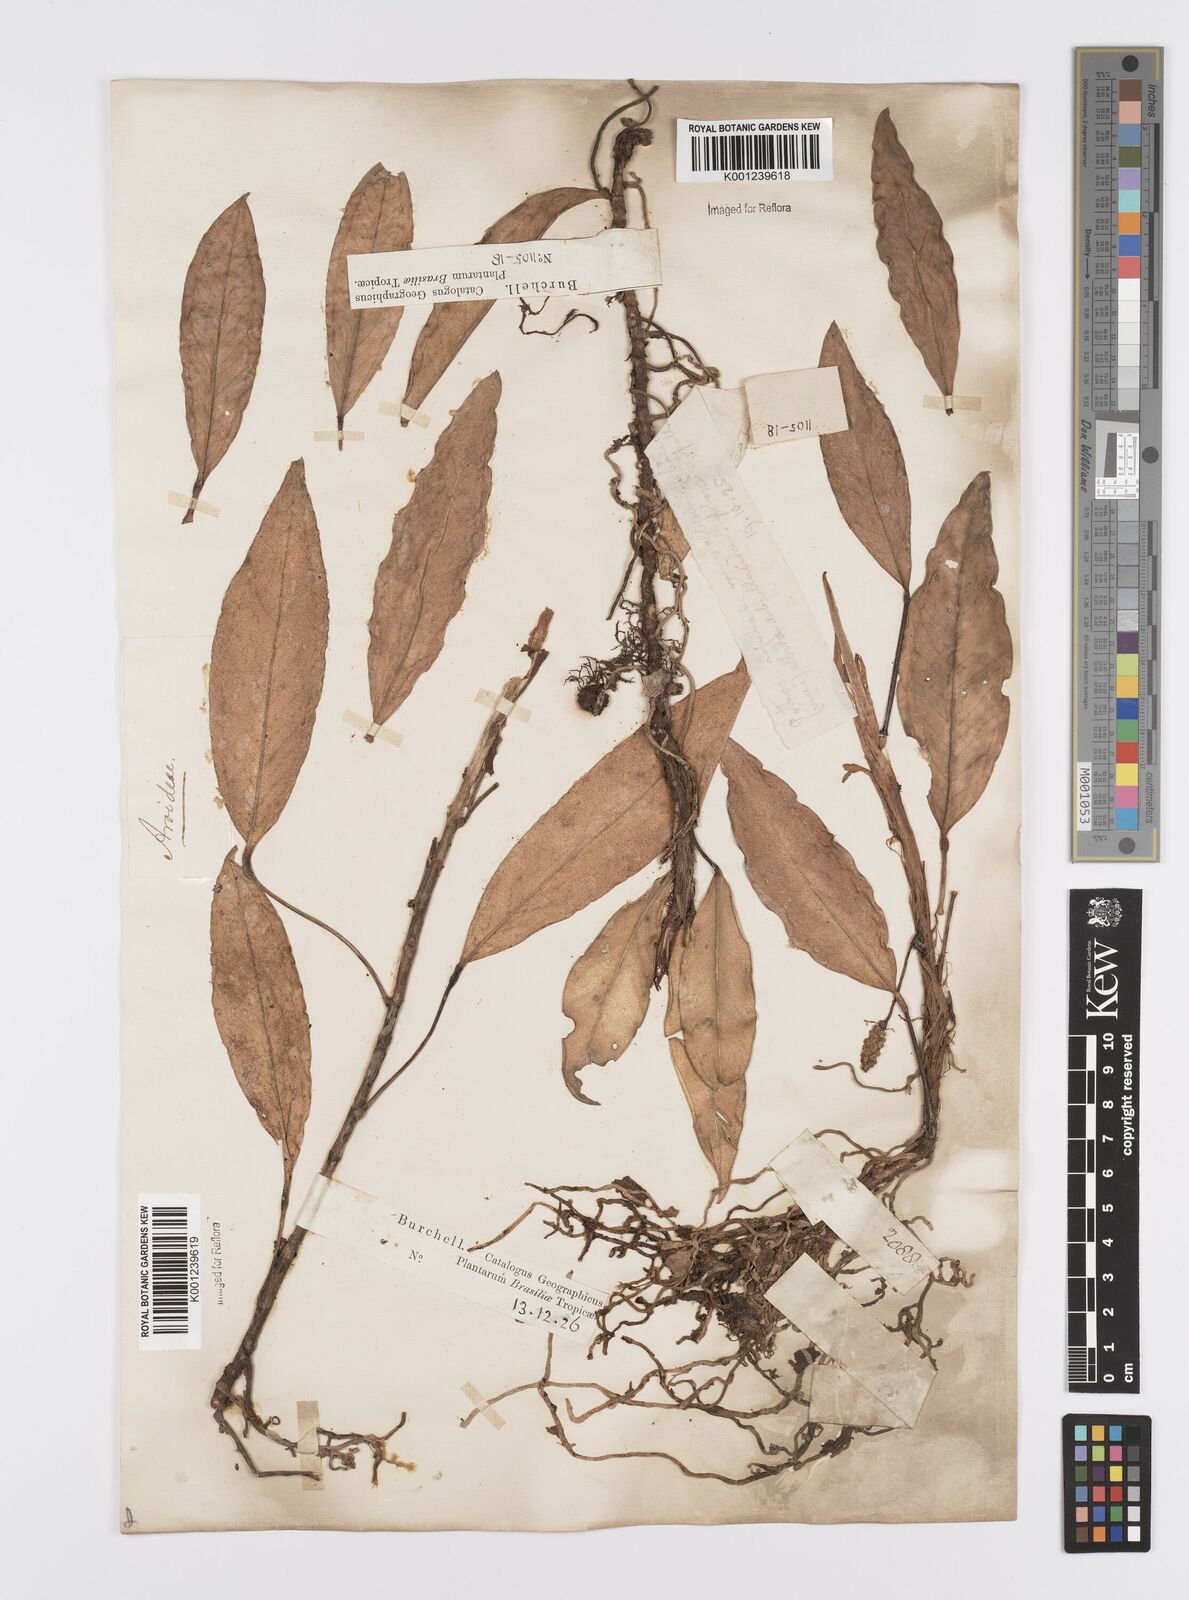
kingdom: Plantae
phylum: Tracheophyta
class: Liliopsida
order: Alismatales
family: Araceae
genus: Anthurium
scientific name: Anthurium scandens
